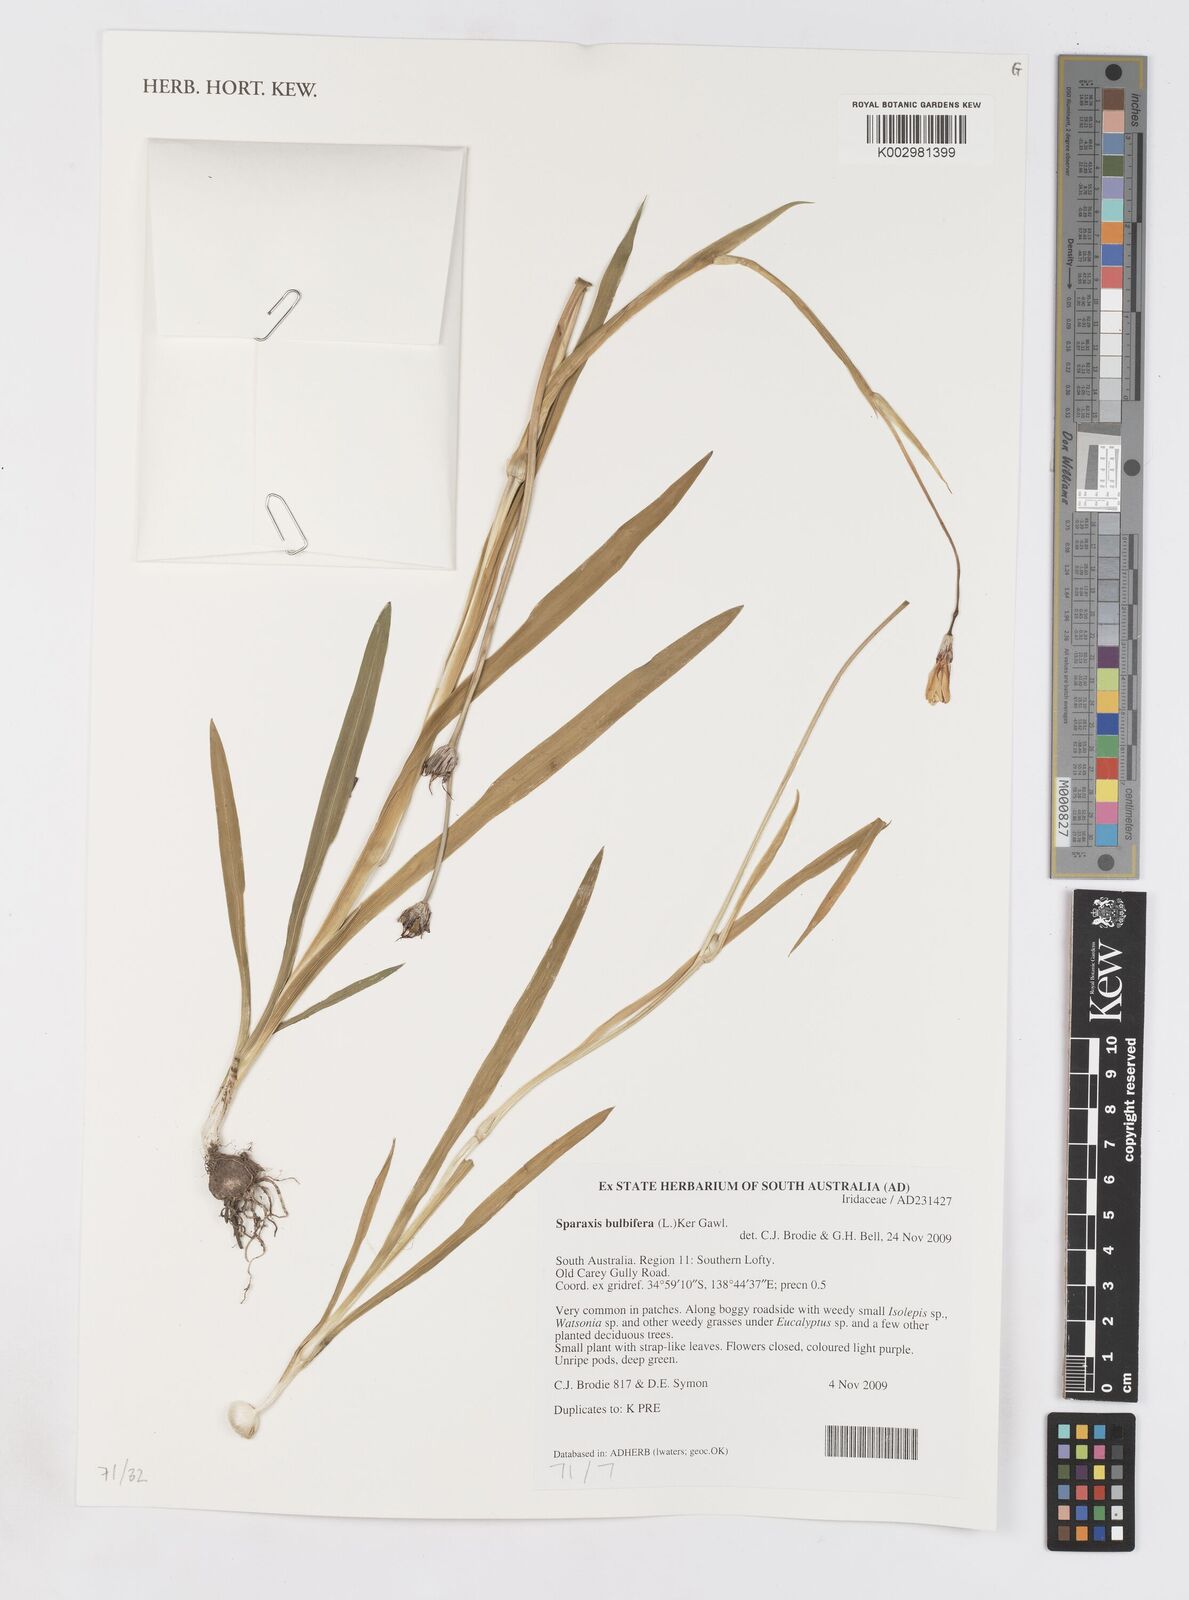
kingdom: Plantae
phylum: Tracheophyta
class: Liliopsida
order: Asparagales
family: Iridaceae
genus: Sparaxis
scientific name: Sparaxis bulbifera
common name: Harlequin-flower
